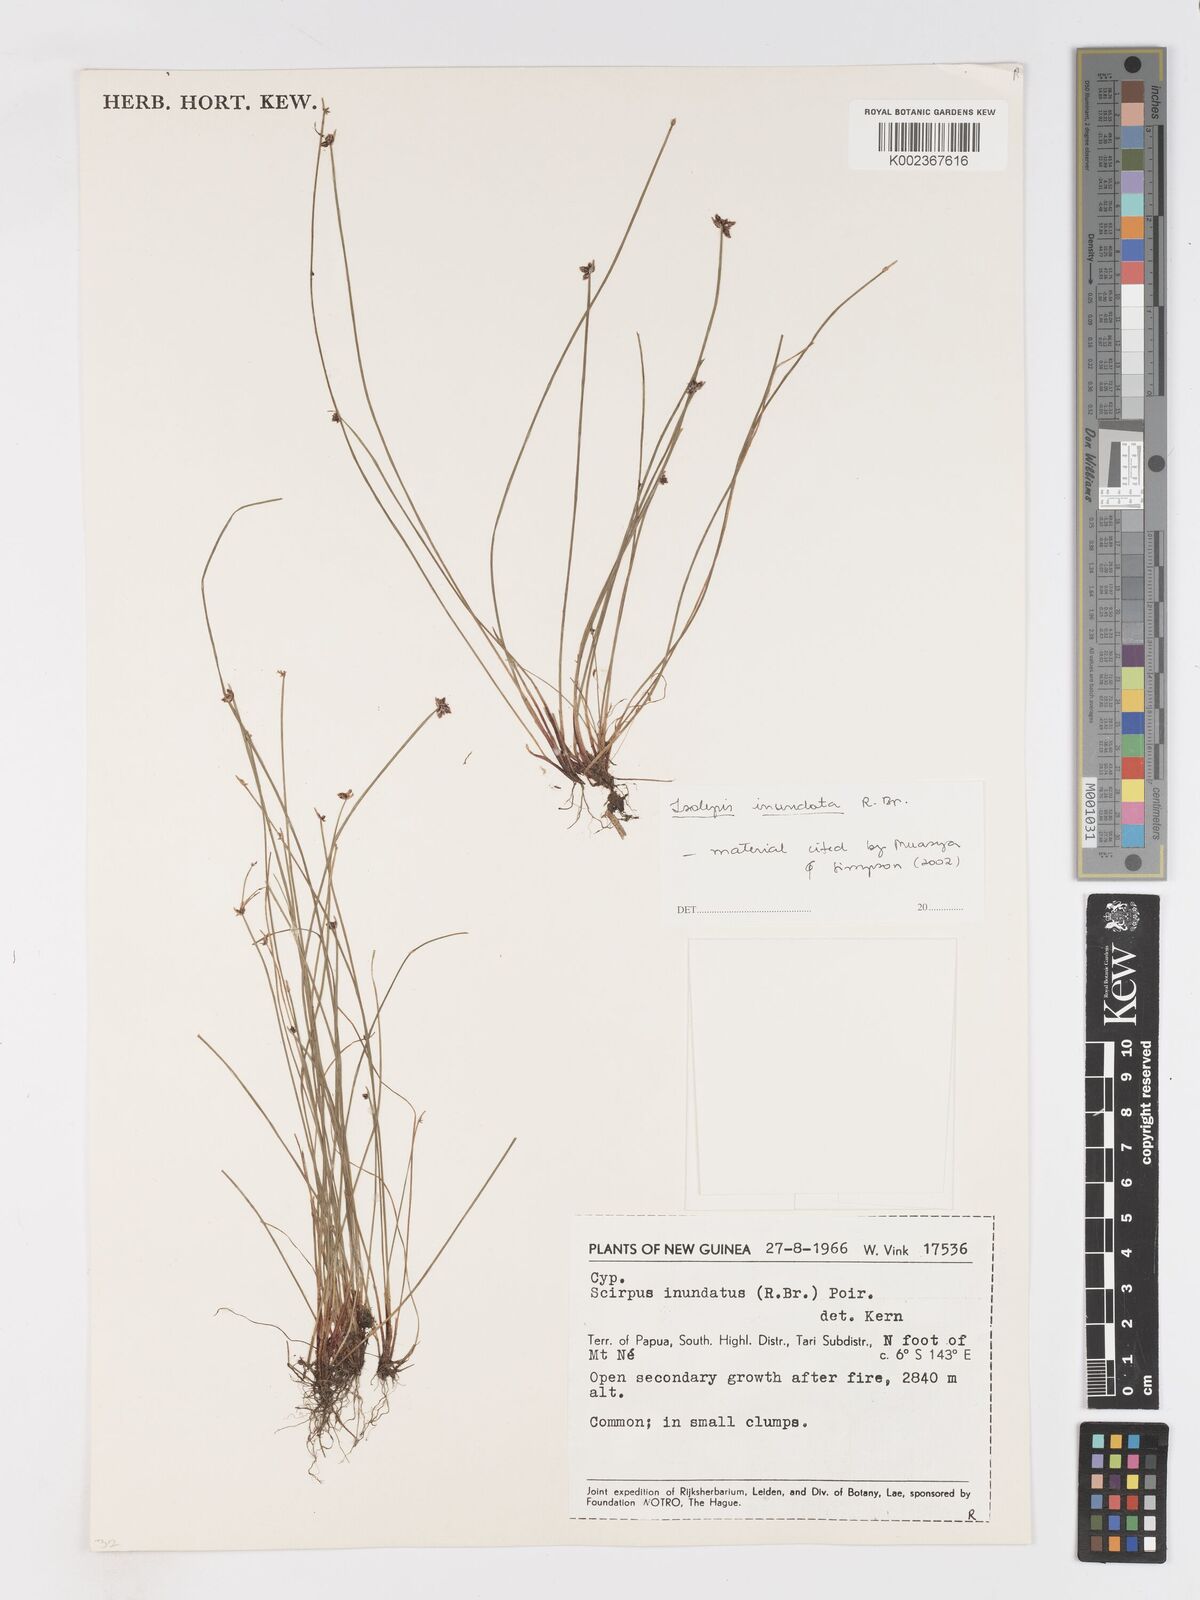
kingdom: Plantae
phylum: Tracheophyta
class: Liliopsida
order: Poales
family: Cyperaceae
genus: Isolepis
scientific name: Isolepis inundata
